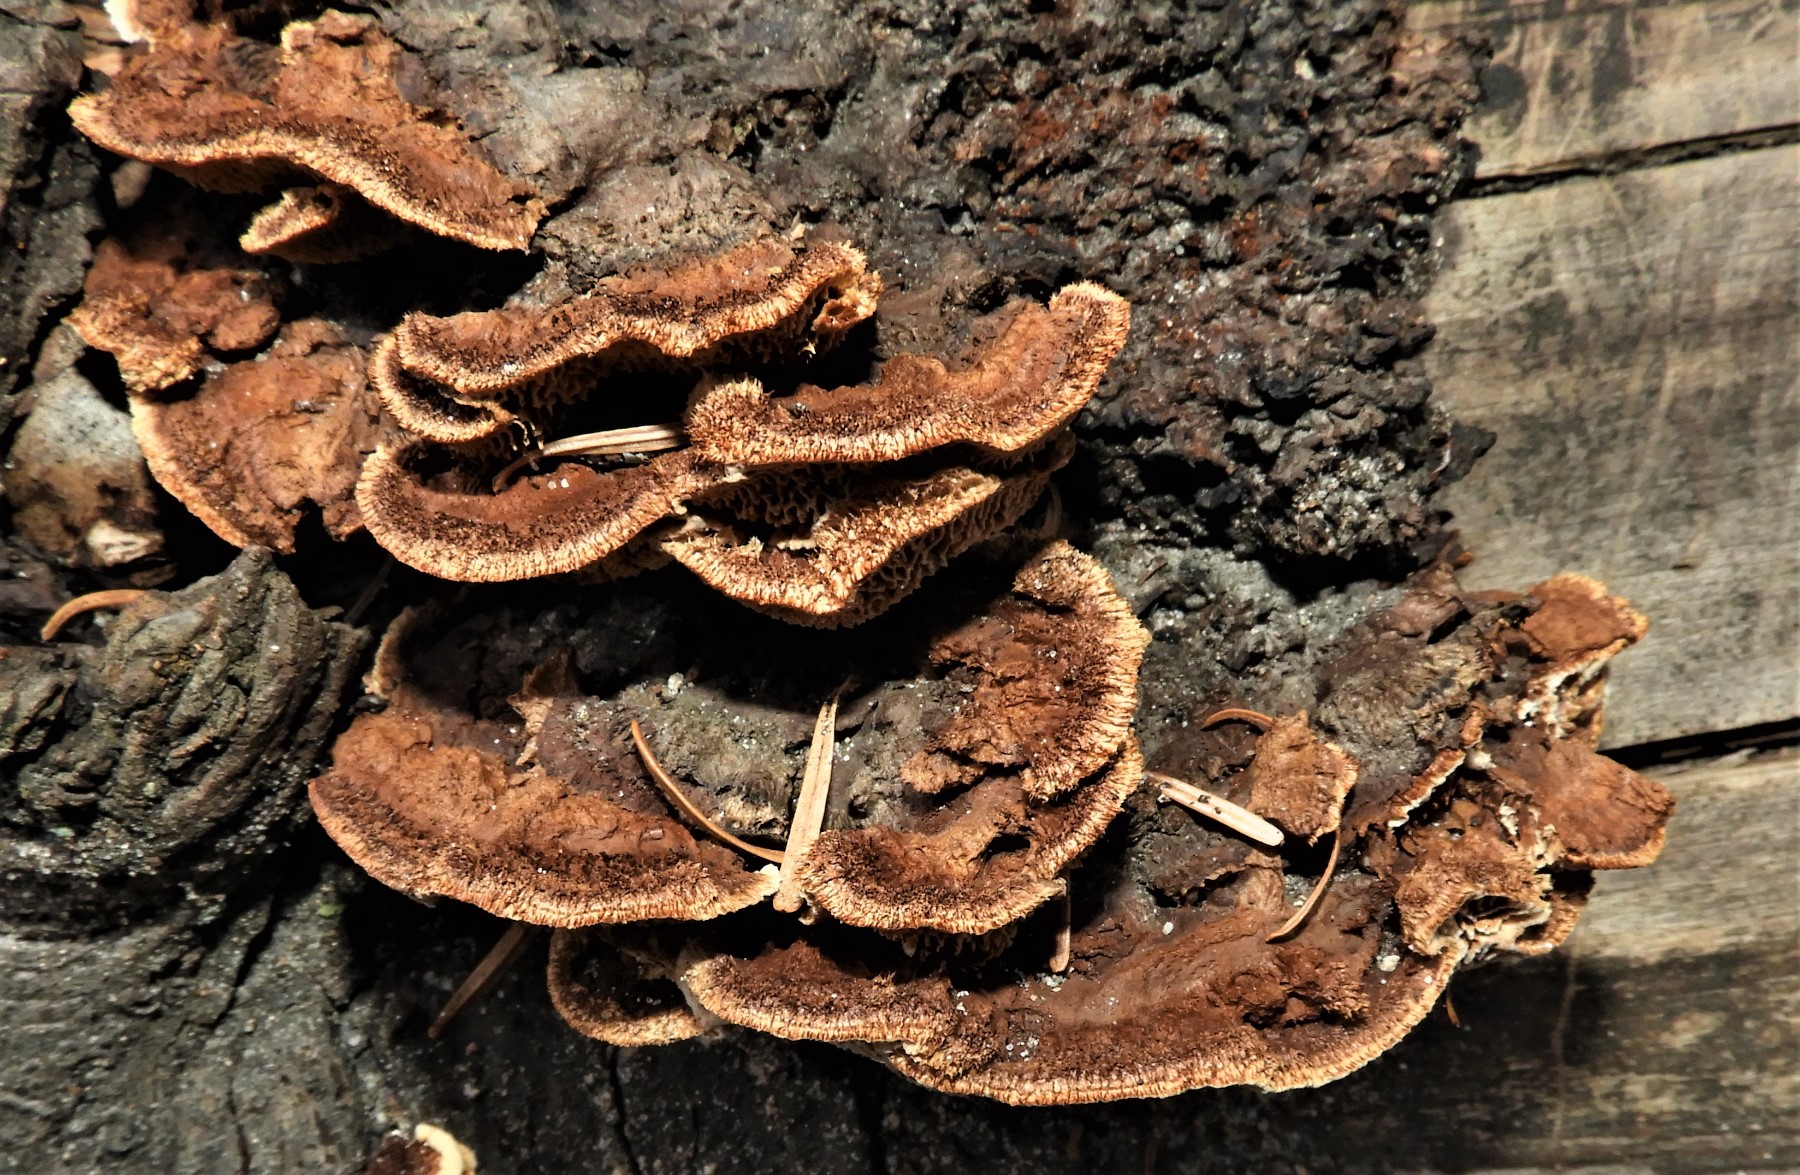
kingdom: Fungi
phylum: Basidiomycota
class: Agaricomycetes
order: Gloeophyllales
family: Gloeophyllaceae
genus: Gloeophyllum
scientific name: Gloeophyllum sepiarium
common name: fyrre-korkhat
